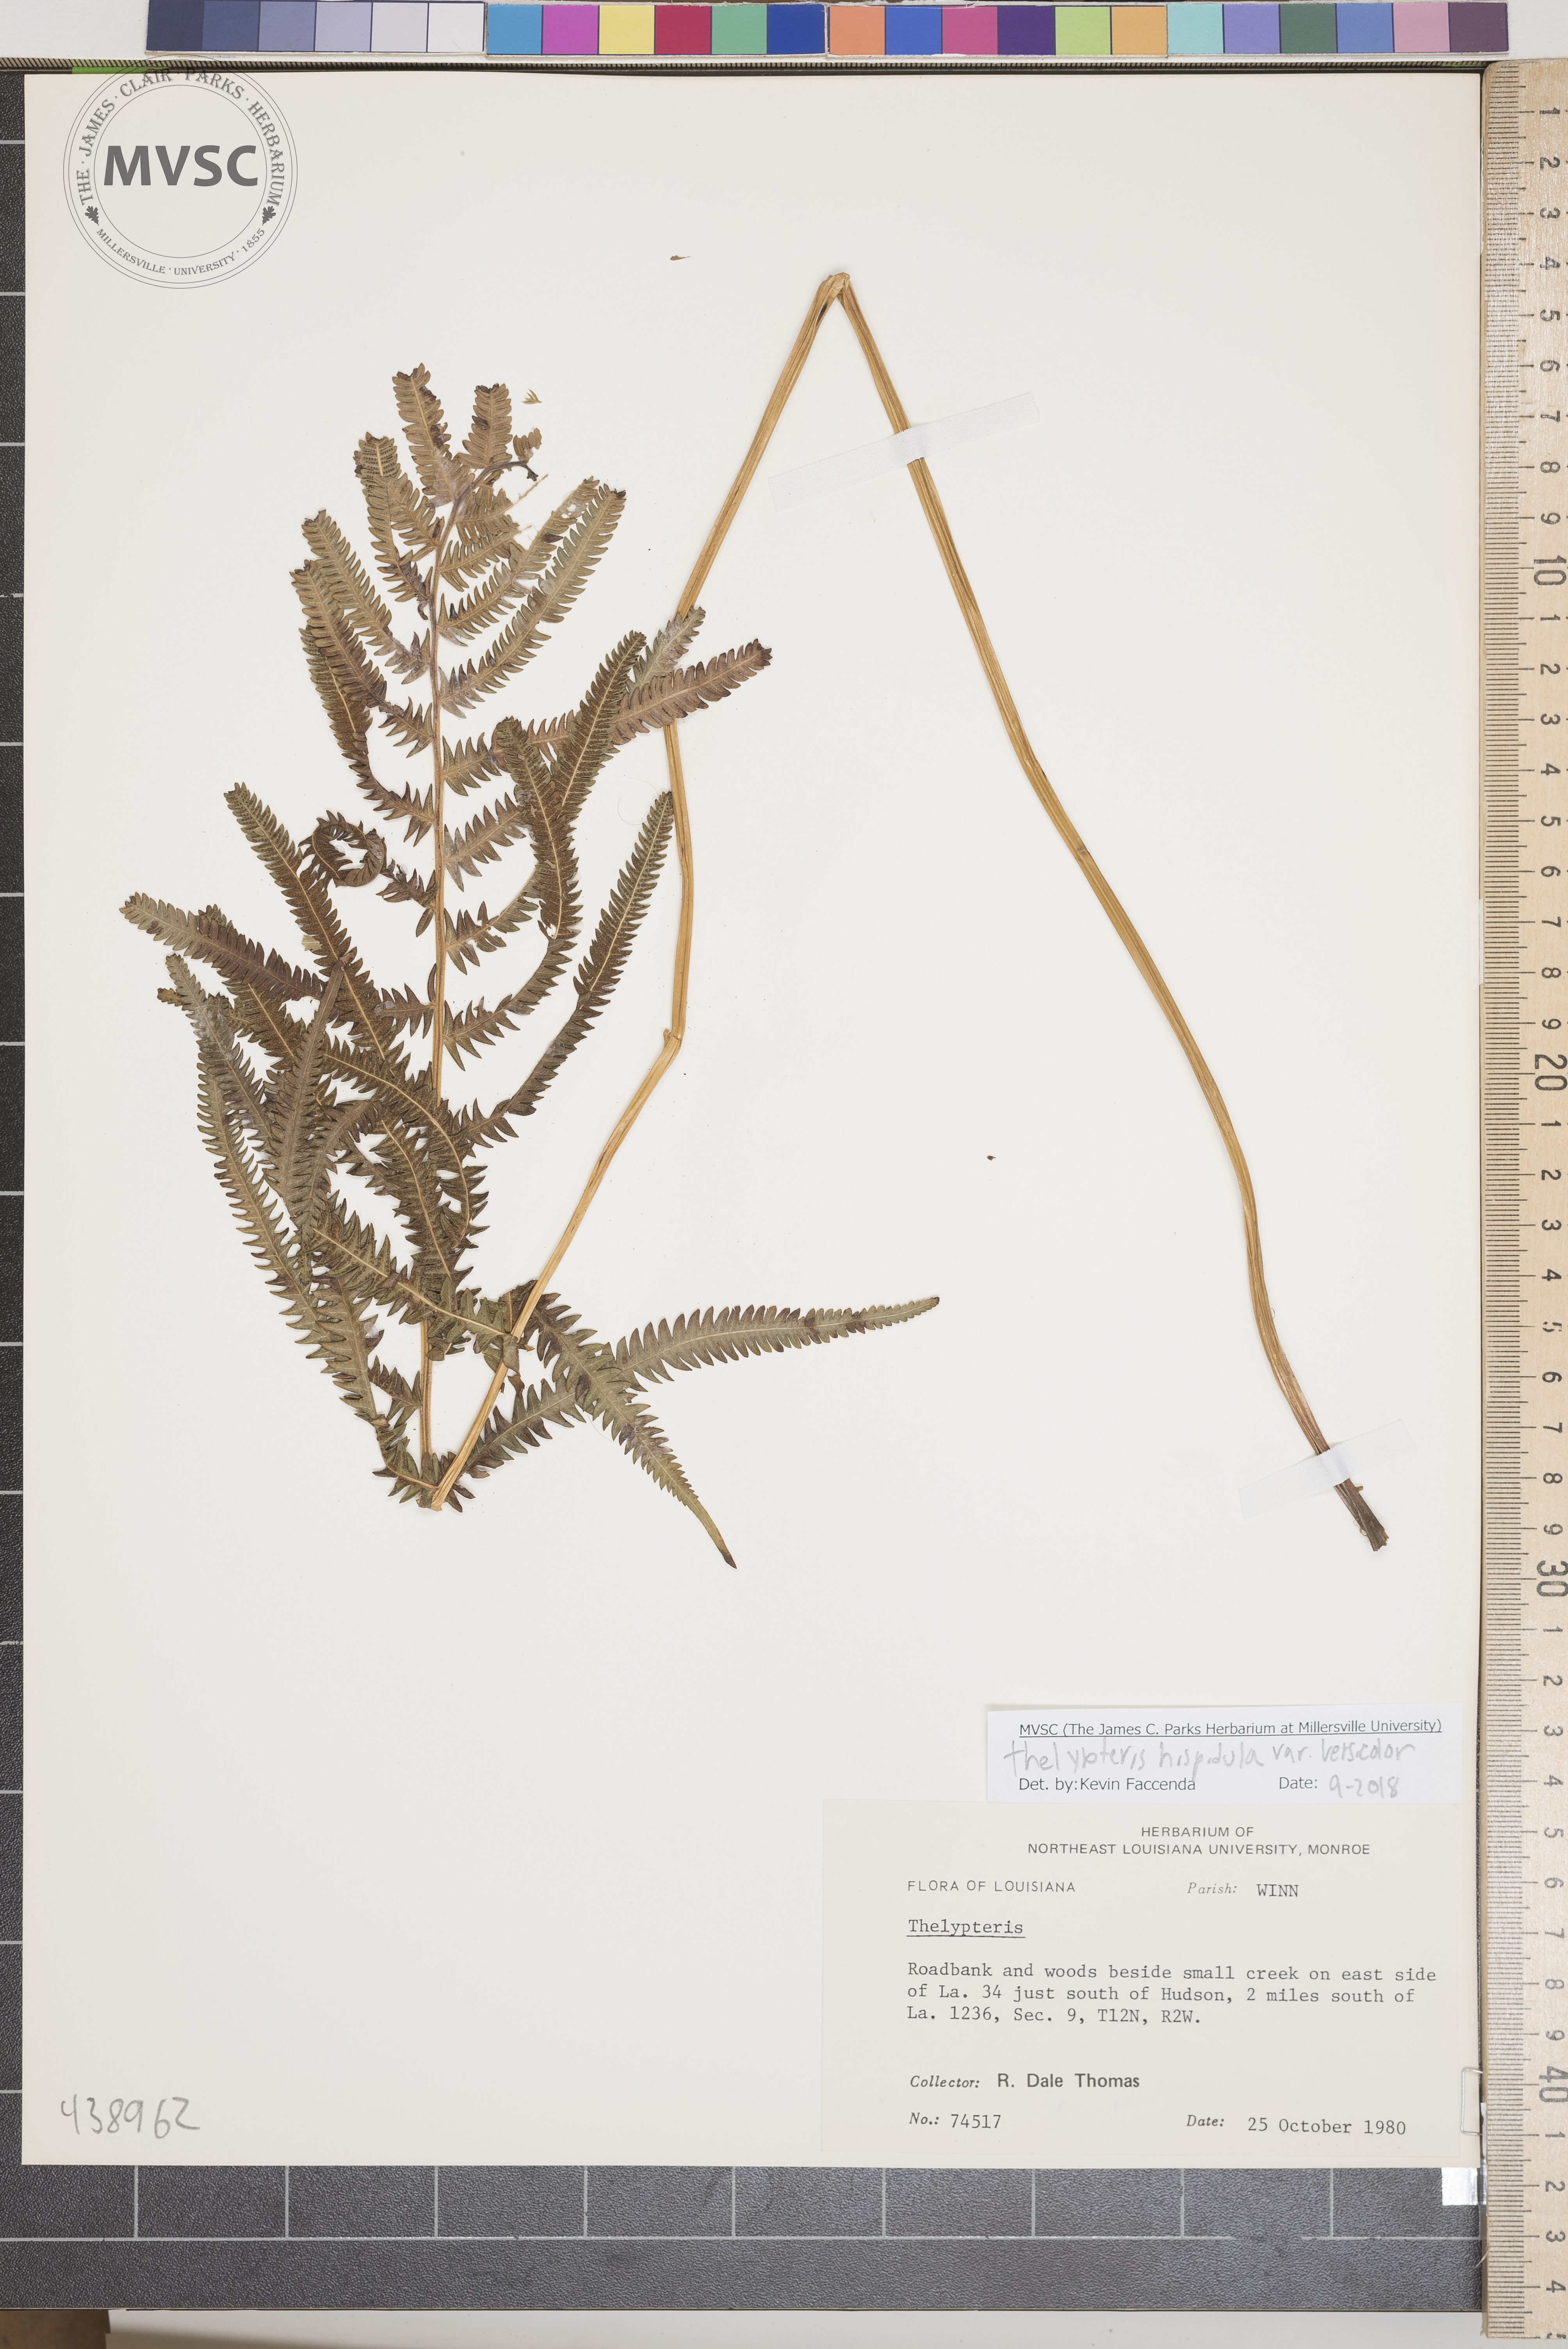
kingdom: Plantae
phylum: Tracheophyta
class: Polypodiopsida
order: Polypodiales
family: Thelypteridaceae
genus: Pelazoneuron
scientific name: Pelazoneuron kunthii
